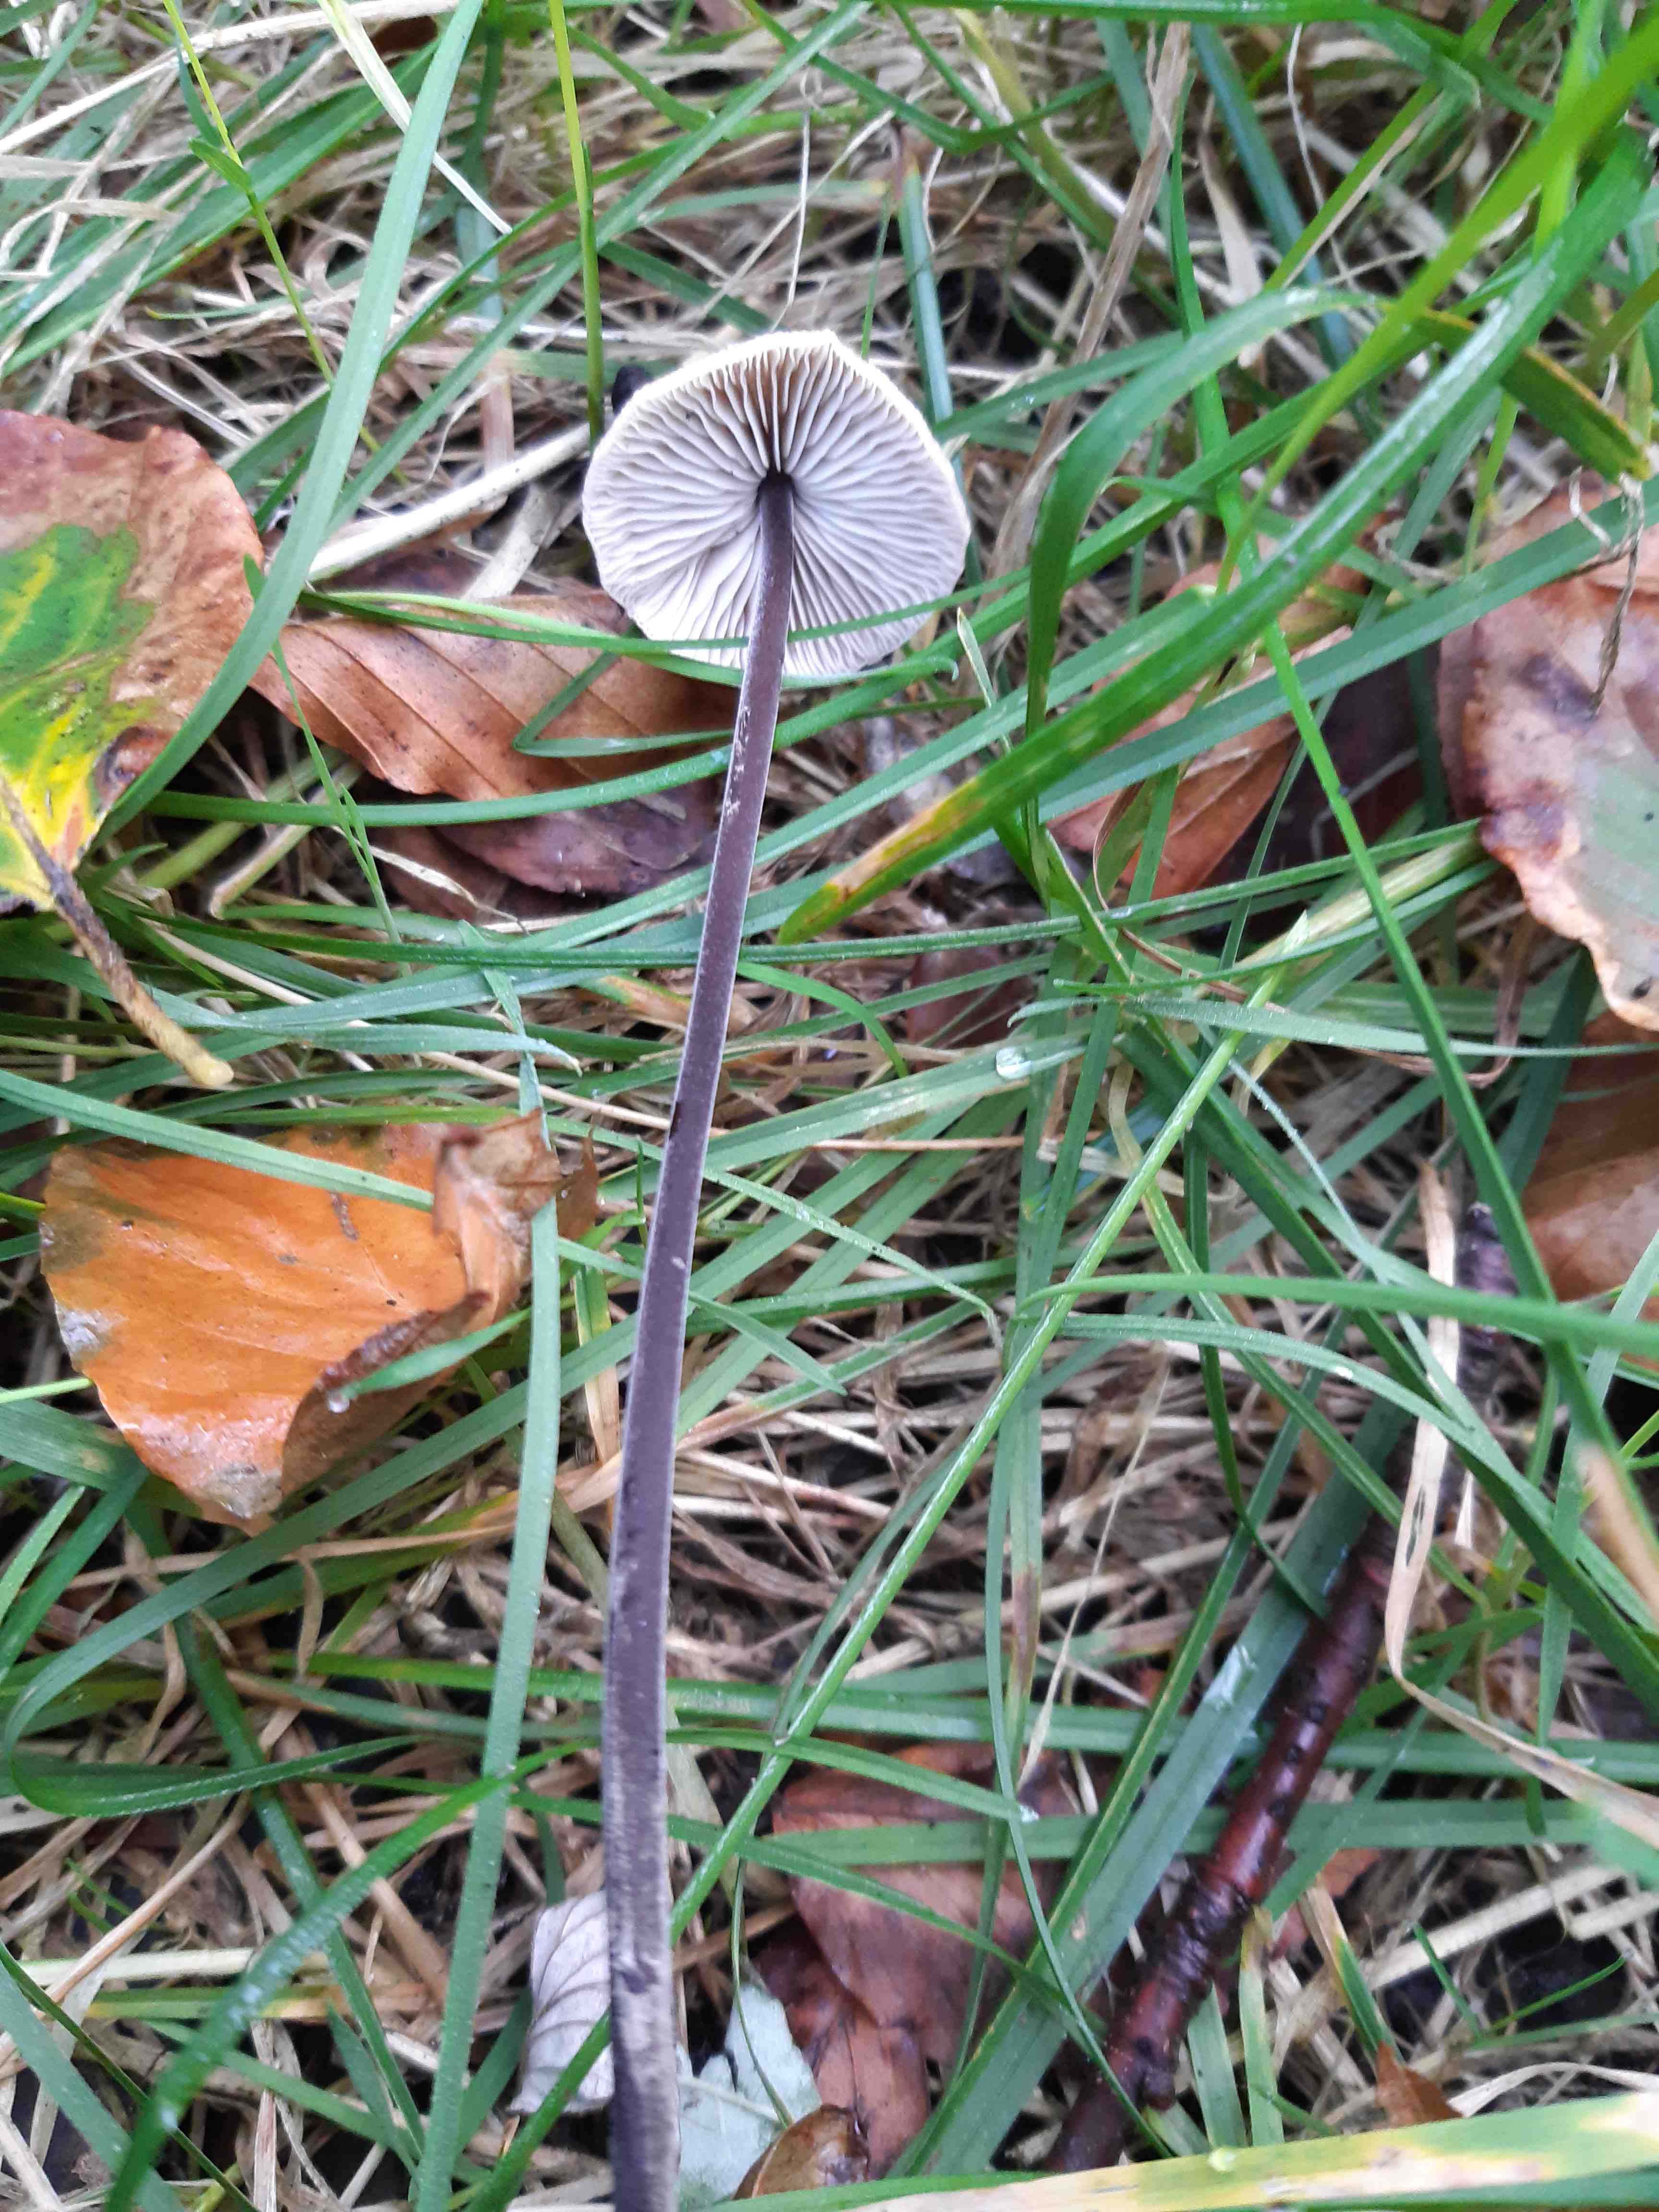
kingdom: Fungi
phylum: Basidiomycota
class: Agaricomycetes
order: Agaricales
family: Omphalotaceae
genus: Mycetinis
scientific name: Mycetinis alliaceus
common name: stor løghat
